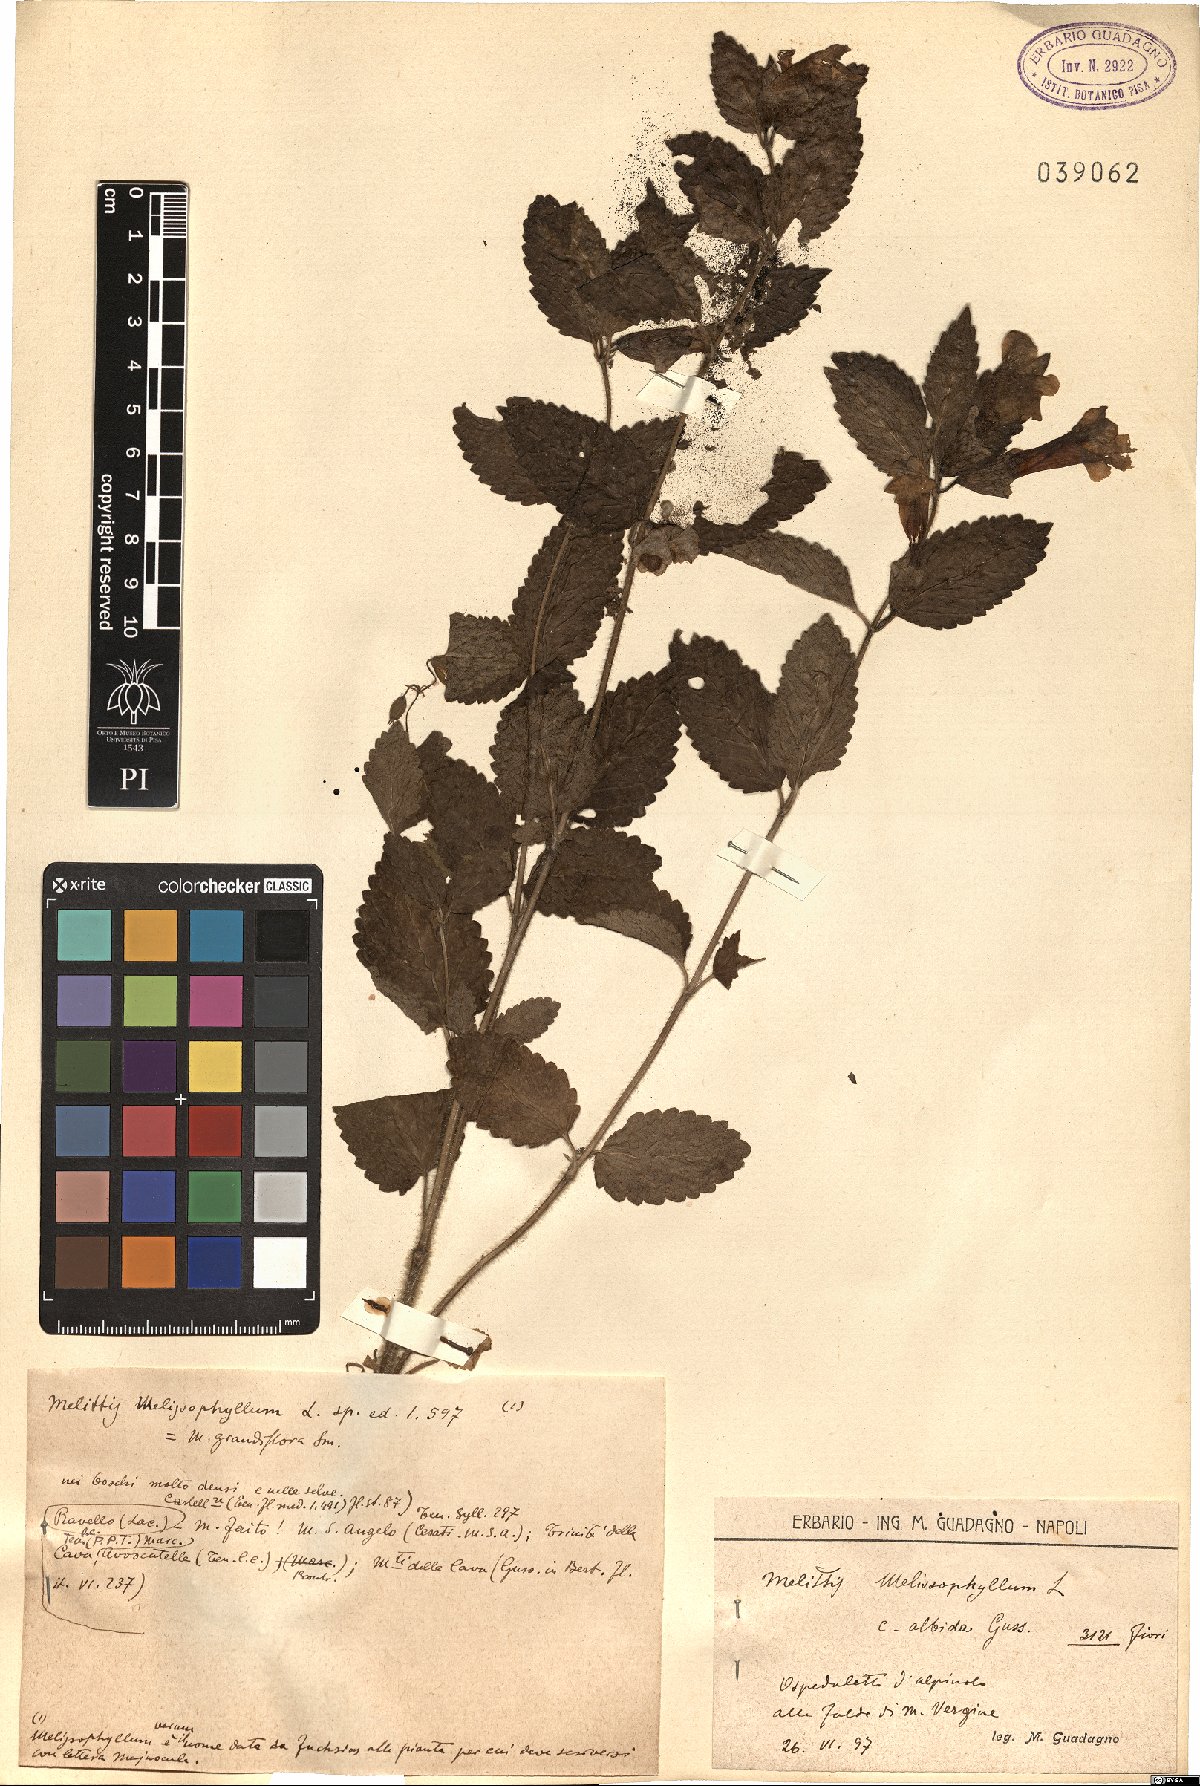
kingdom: Plantae
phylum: Tracheophyta
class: Magnoliopsida
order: Lamiales
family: Lamiaceae
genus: Melittis
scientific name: Melittis melissophyllum
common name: Bastard balm
